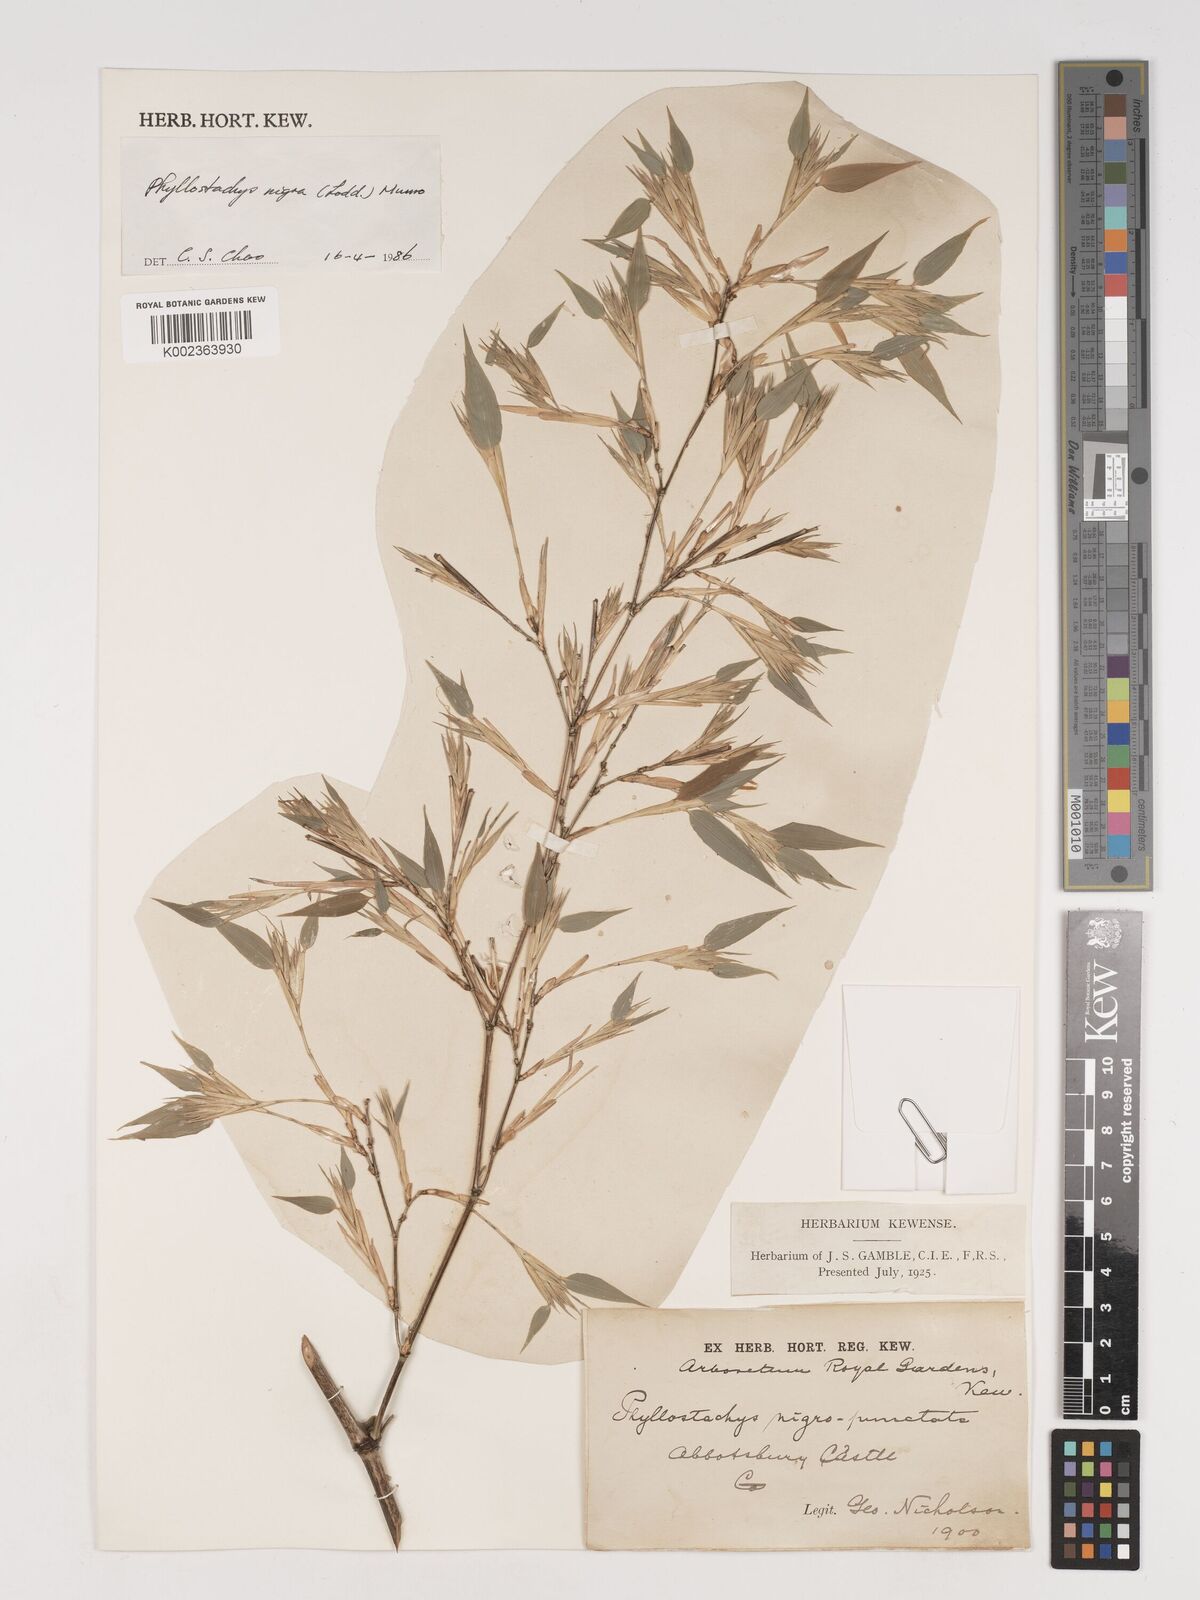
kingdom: Plantae
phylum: Tracheophyta
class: Liliopsida
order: Poales
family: Poaceae
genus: Phyllostachys
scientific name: Phyllostachys nigra
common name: Black bamboo
